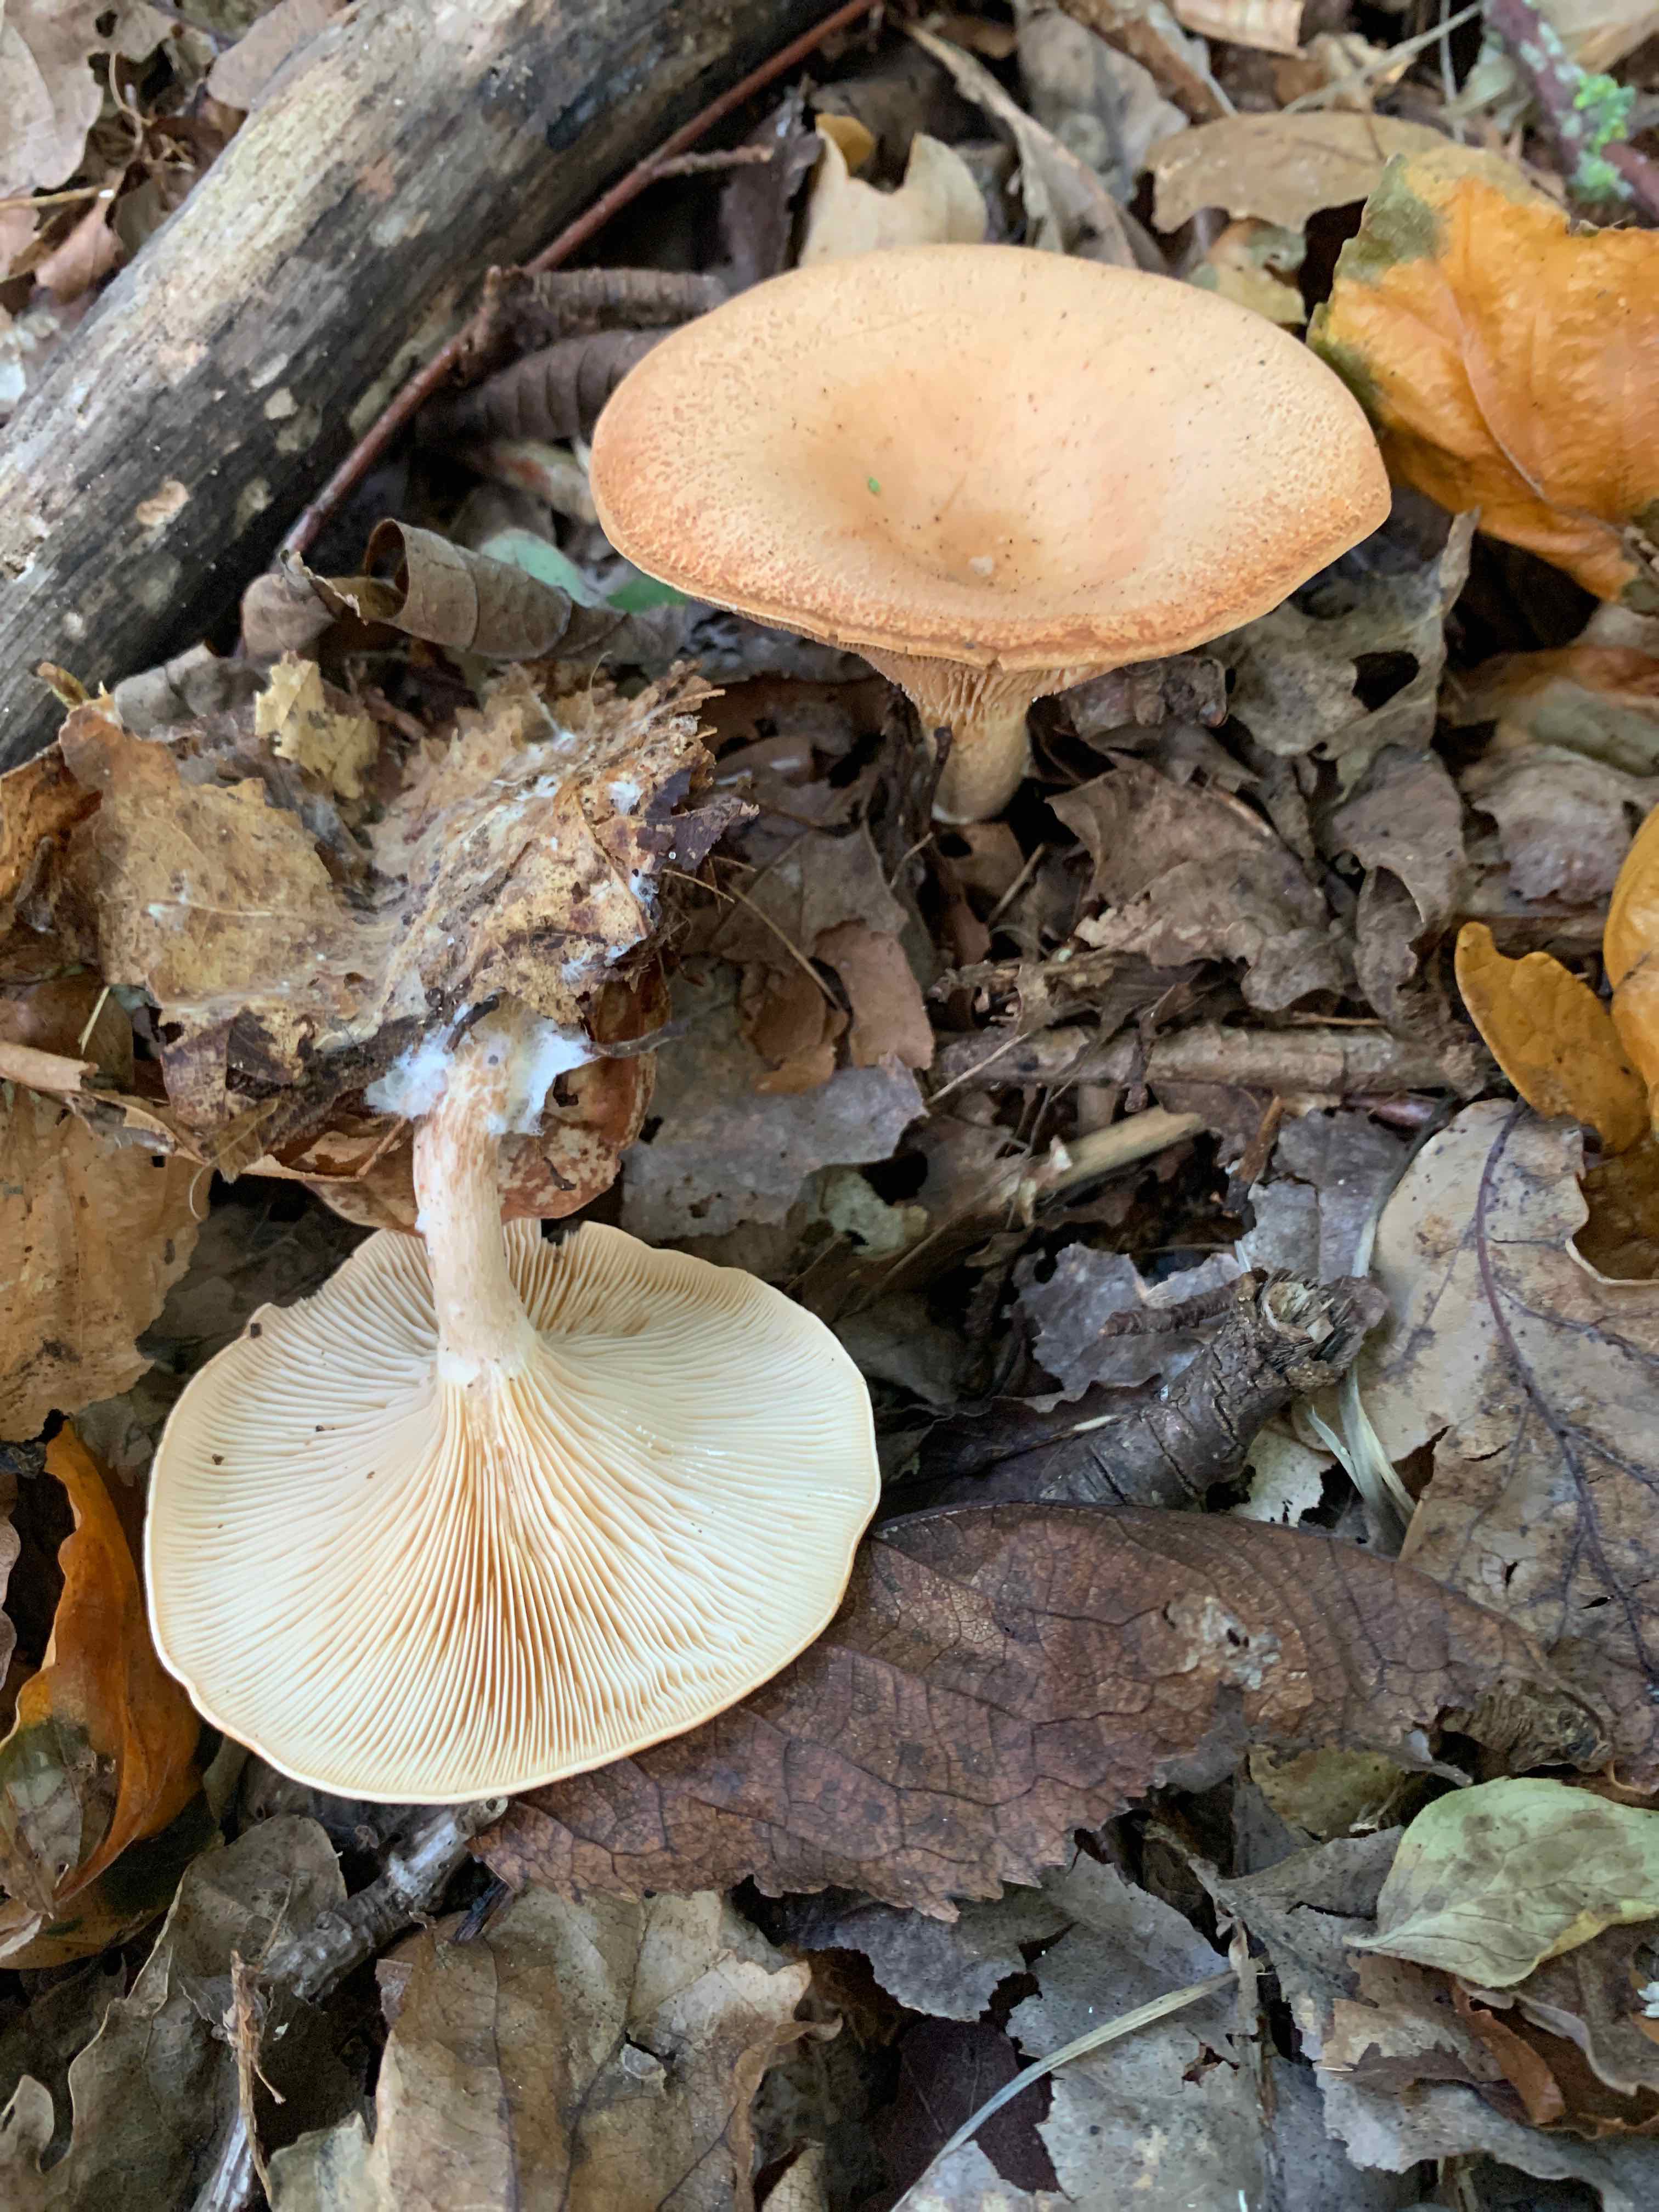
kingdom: Fungi
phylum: Basidiomycota
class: Agaricomycetes
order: Agaricales
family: Tricholomataceae
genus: Paralepista
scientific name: Paralepista flaccida
